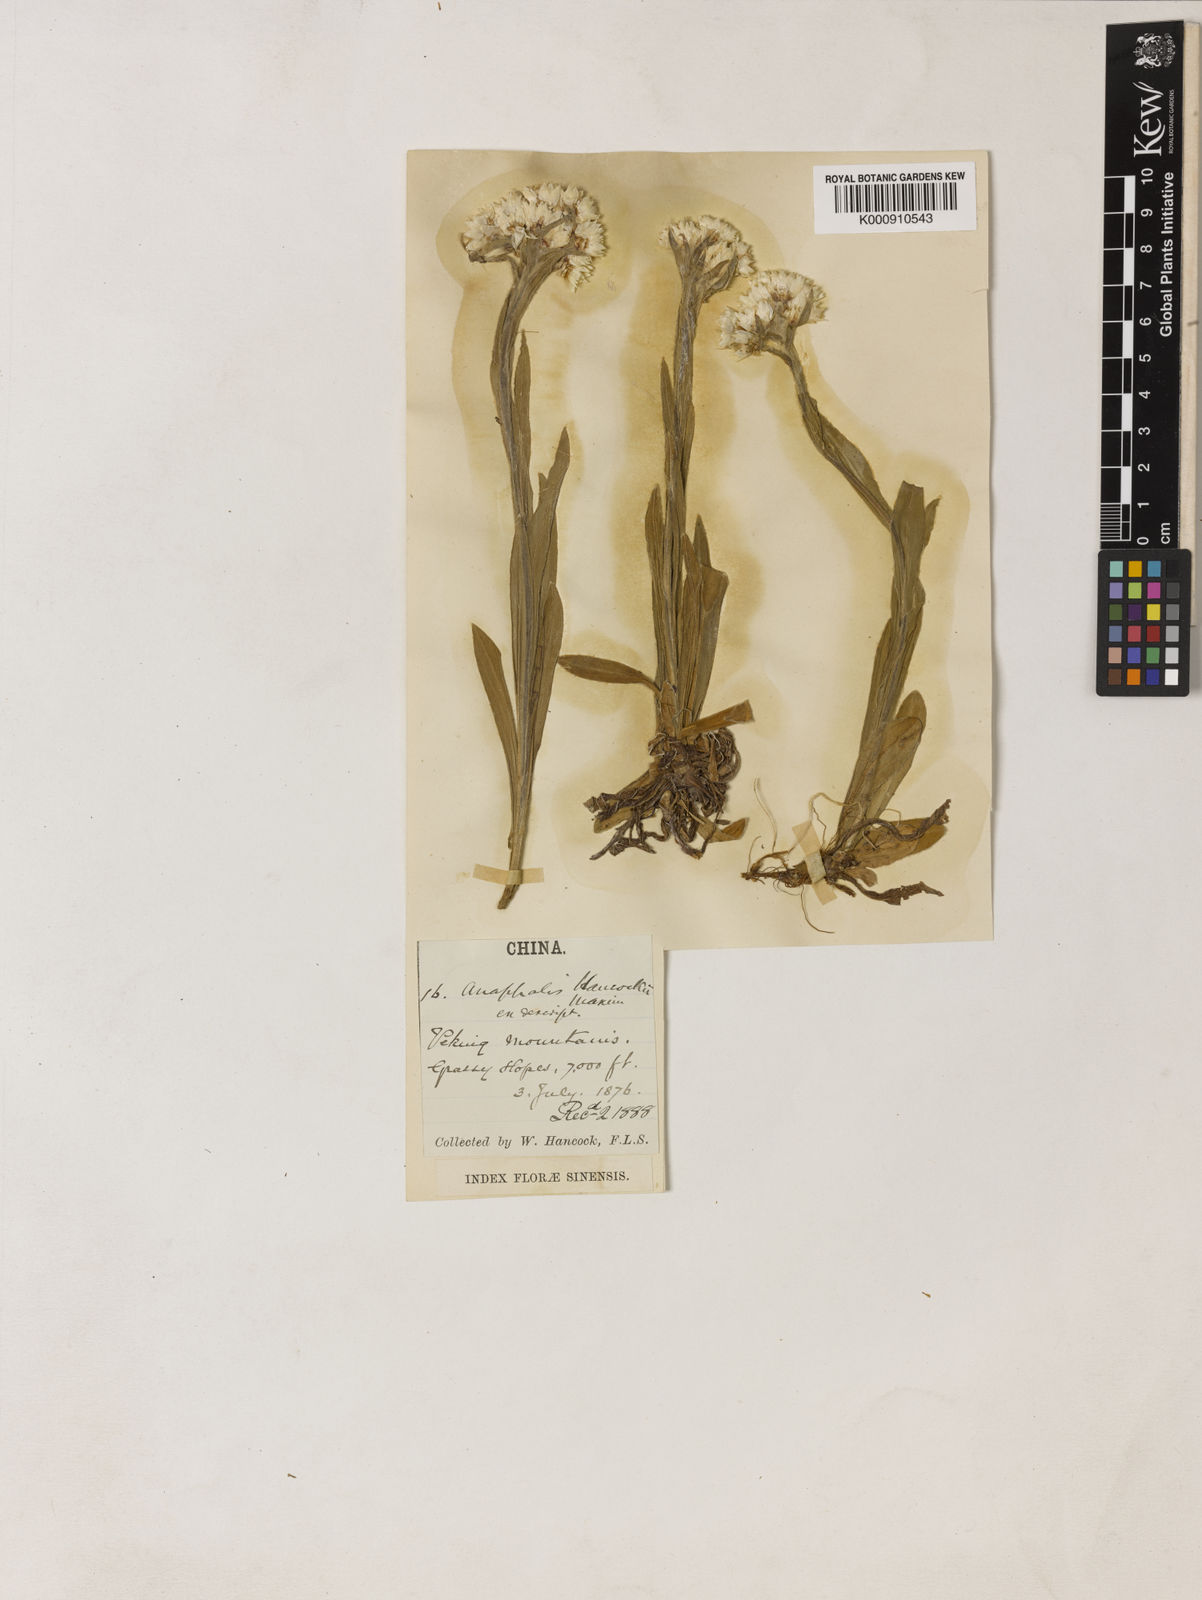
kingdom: Plantae
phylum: Tracheophyta
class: Magnoliopsida
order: Asterales
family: Asteraceae
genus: Anaphalis
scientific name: Anaphalis hancockii
